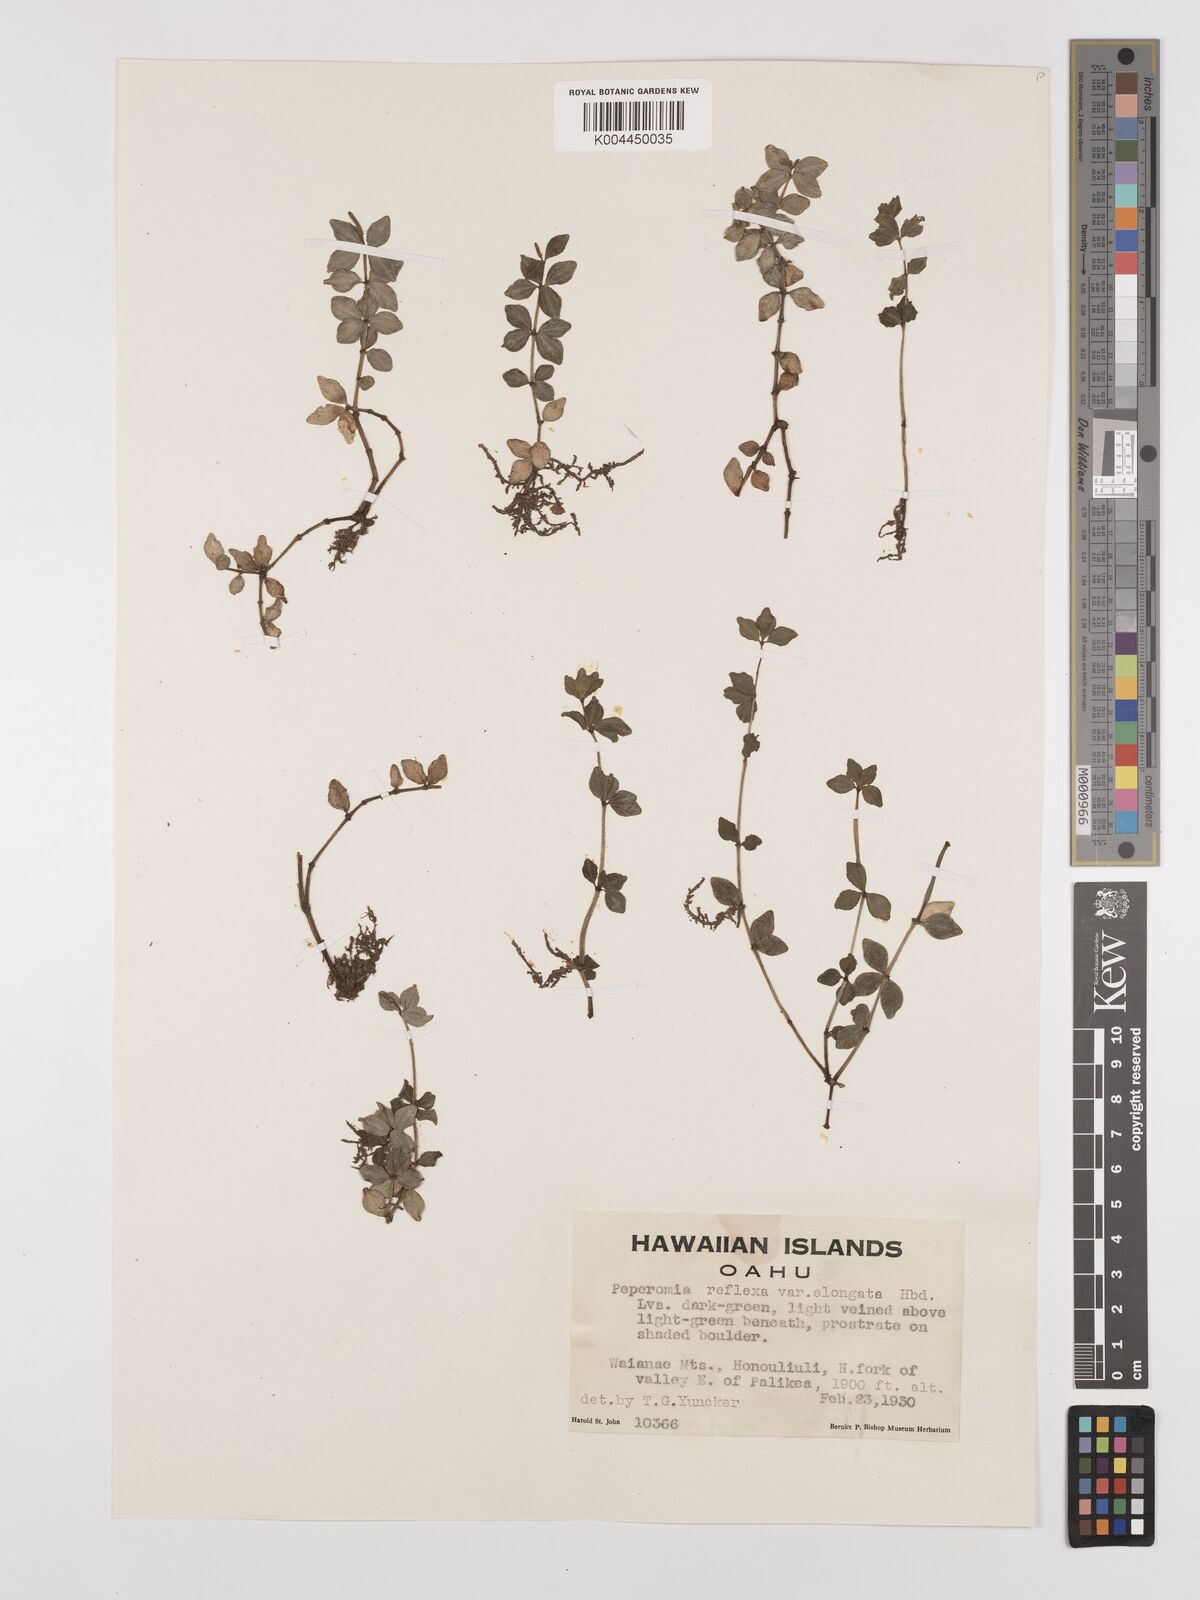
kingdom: Plantae
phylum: Tracheophyta
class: Magnoliopsida
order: Piperales
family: Piperaceae
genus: Peperomia
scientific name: Peperomia tetraphylla
